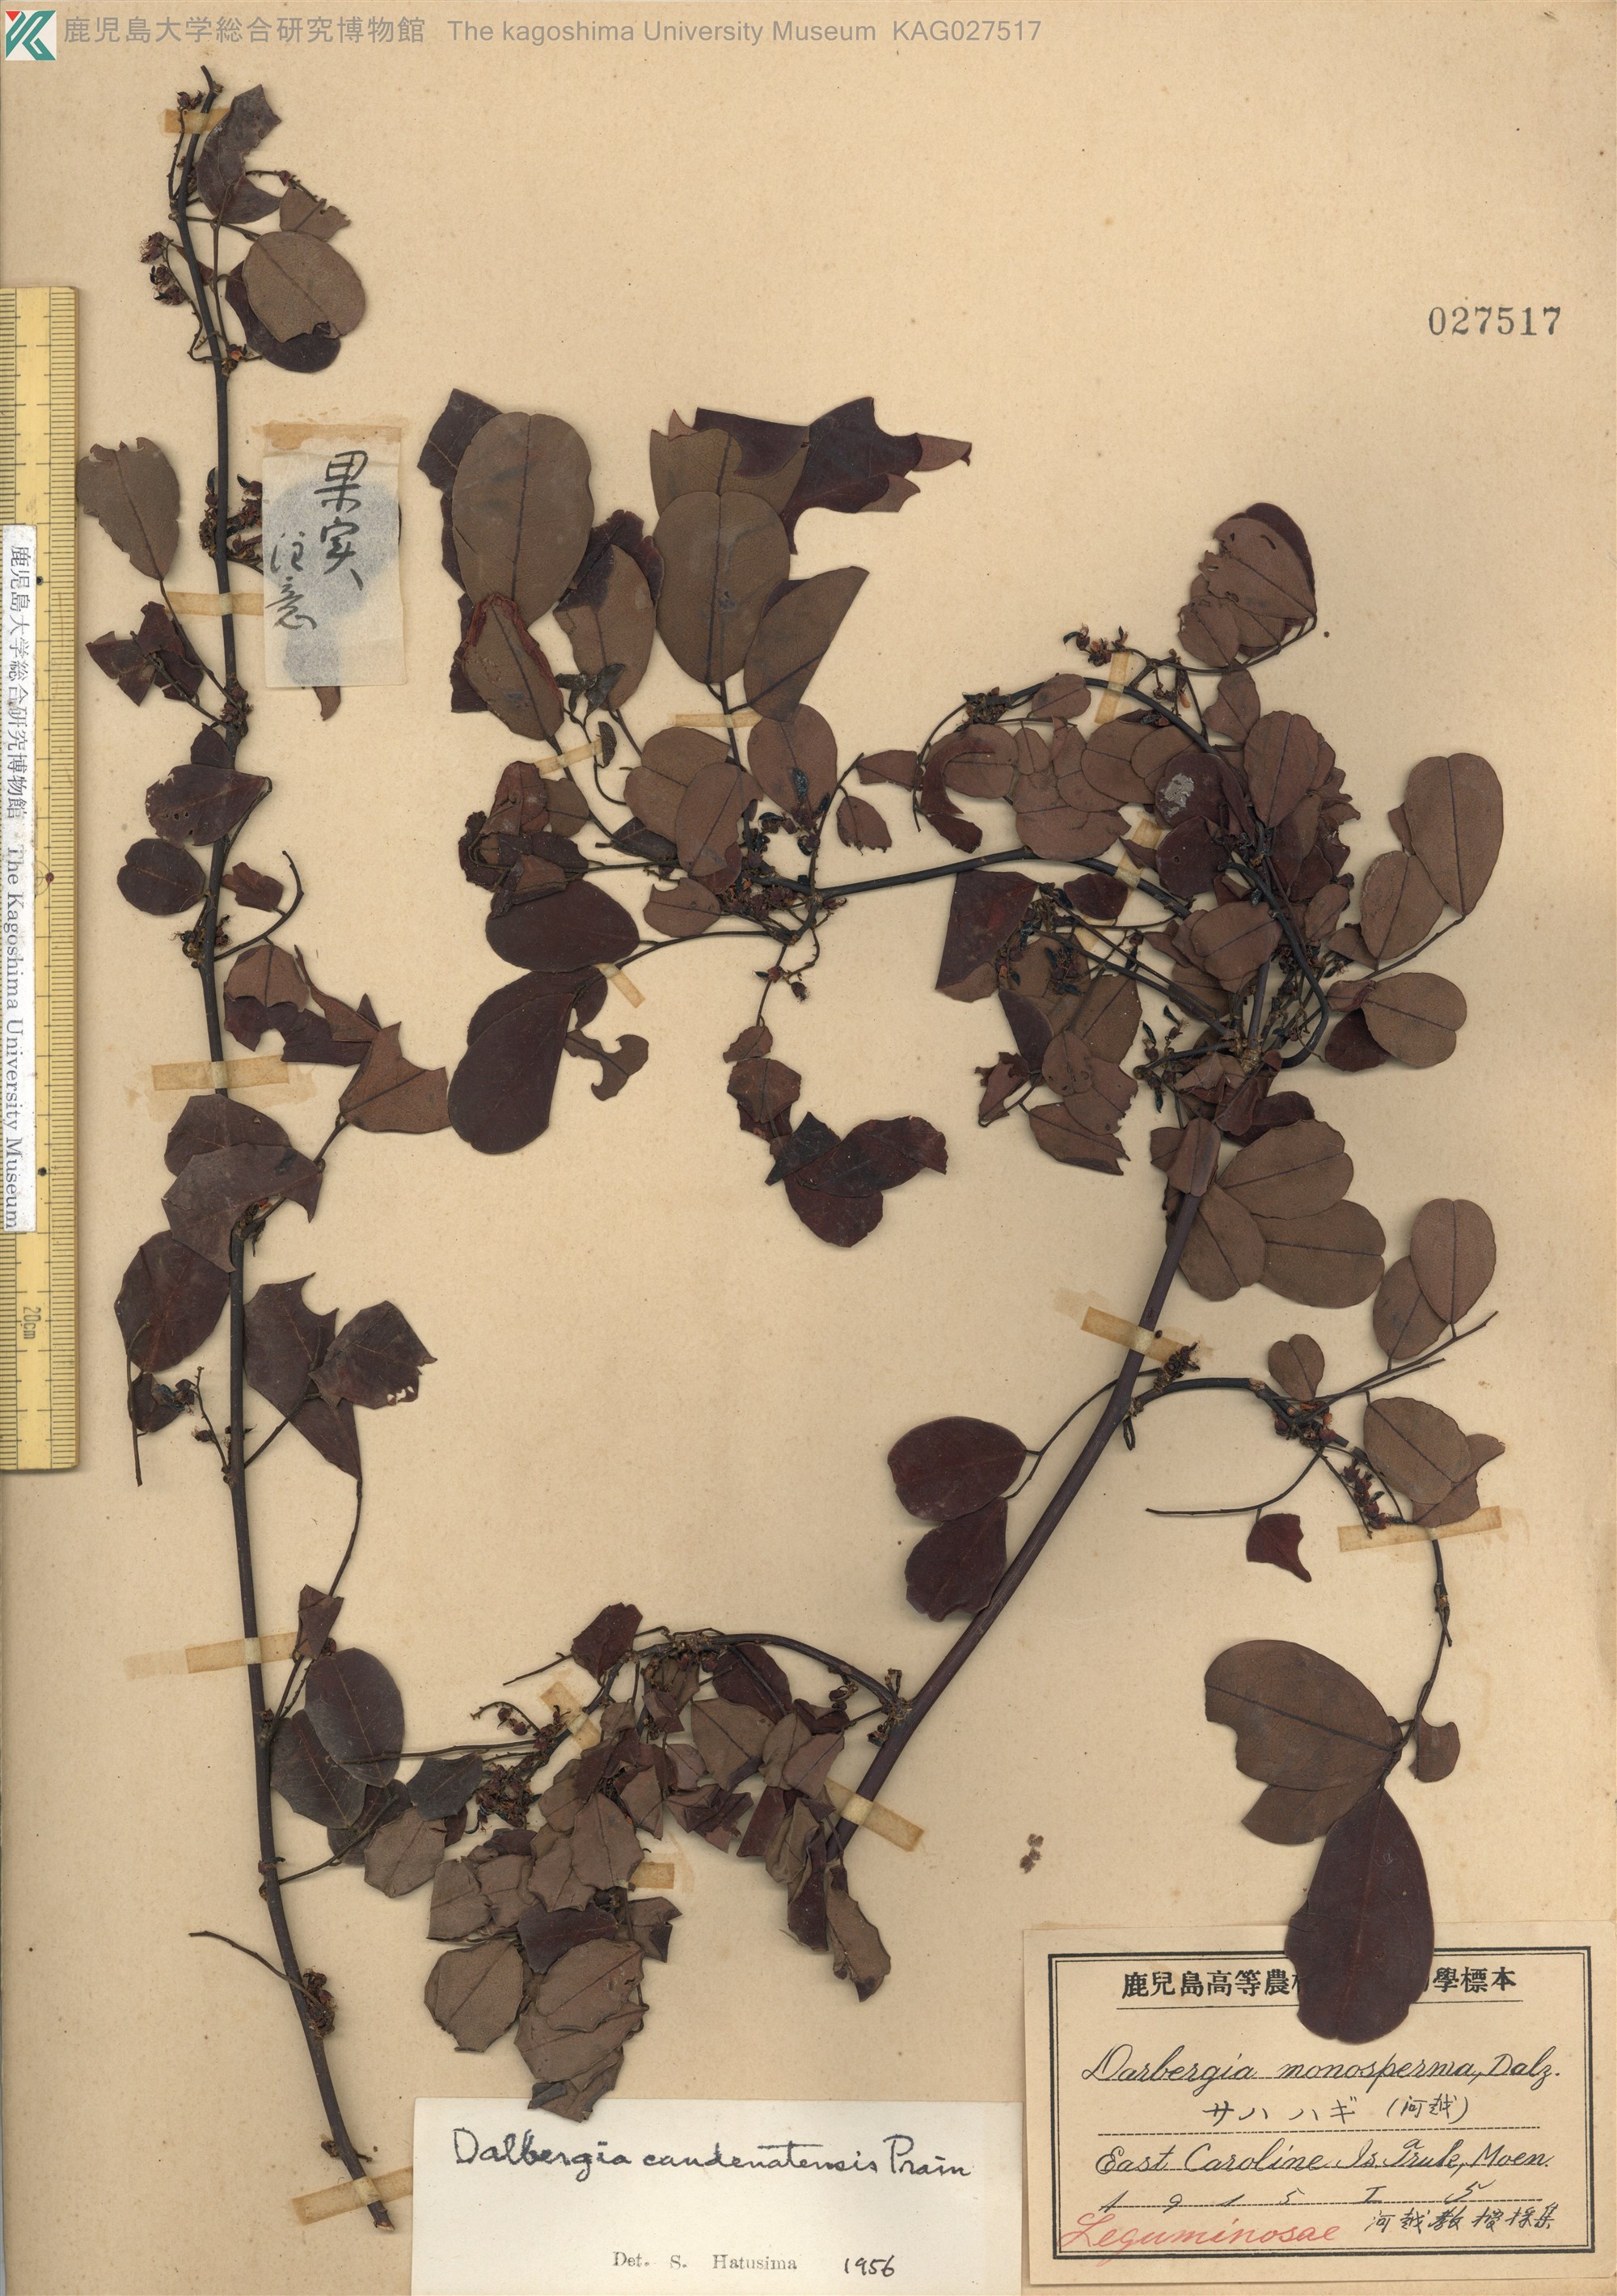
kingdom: Plantae
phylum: Tracheophyta
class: Magnoliopsida
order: Fabales
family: Fabaceae
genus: Dalbergia
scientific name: Dalbergia candenatensis
